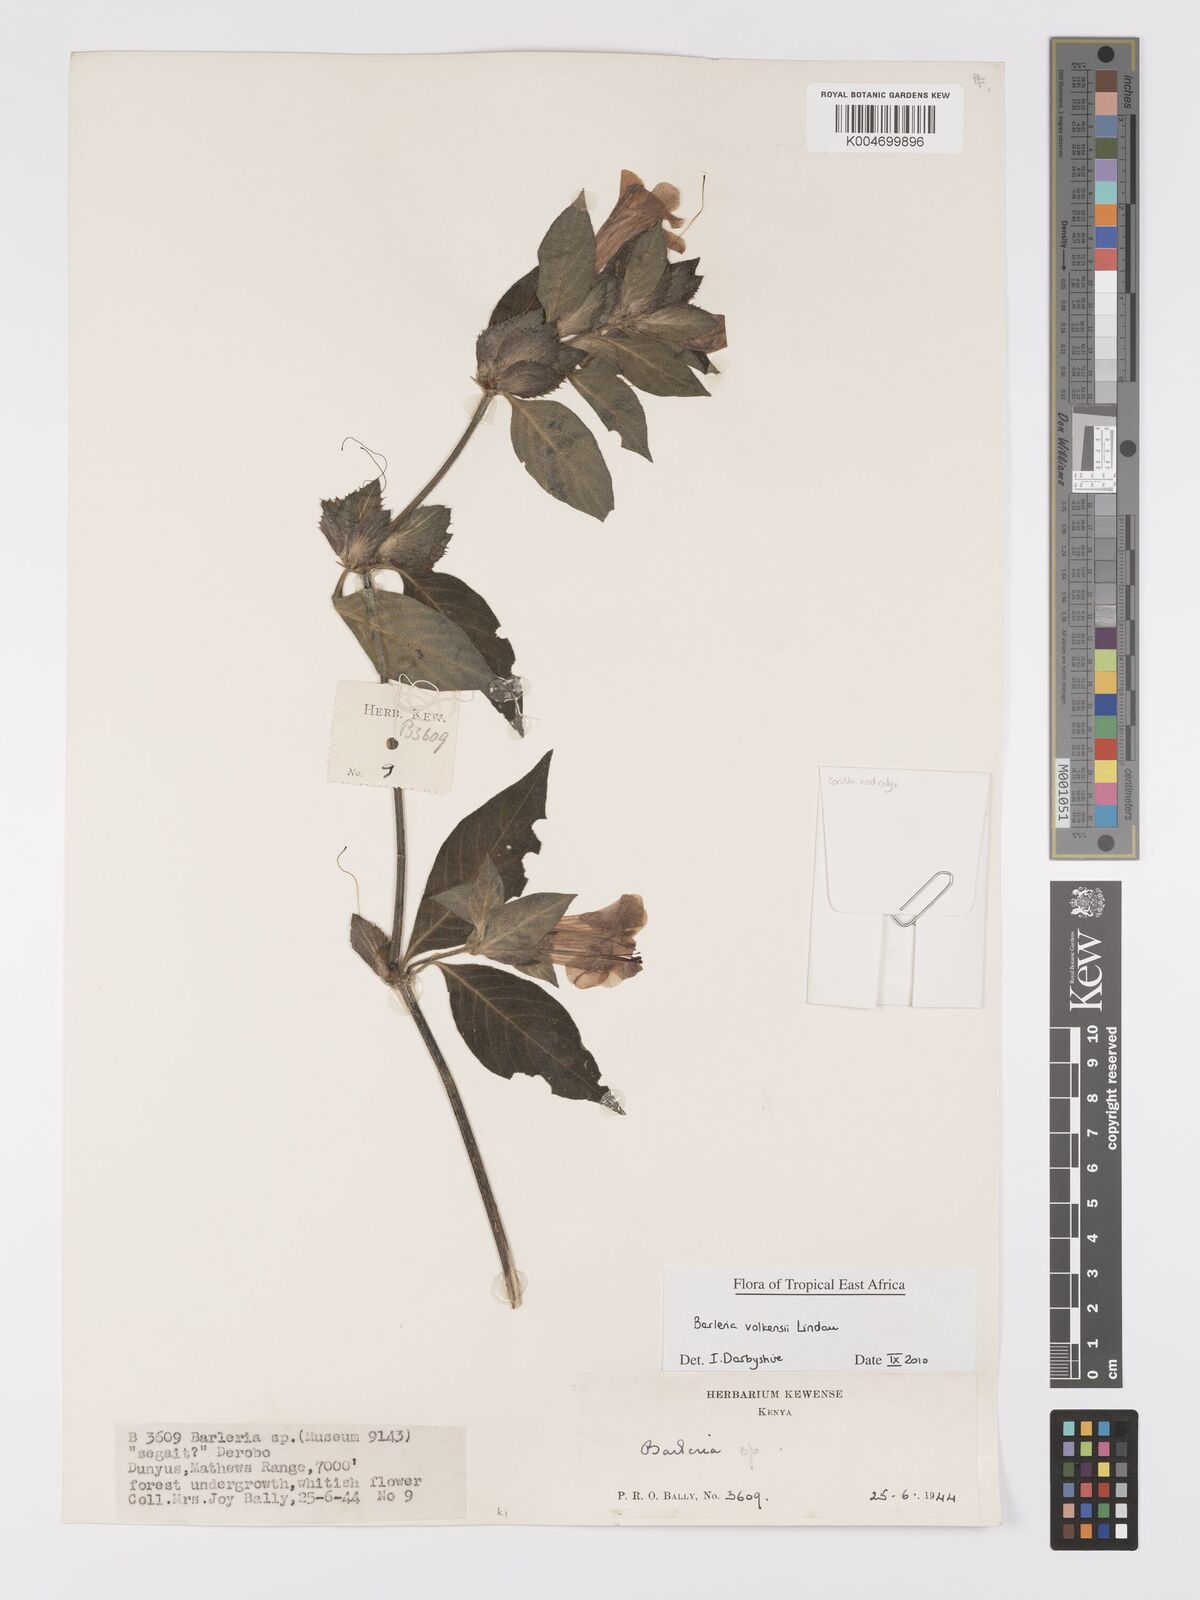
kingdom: Plantae
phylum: Tracheophyta
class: Magnoliopsida
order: Lamiales
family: Acanthaceae
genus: Barleria
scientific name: Barleria volkensii
